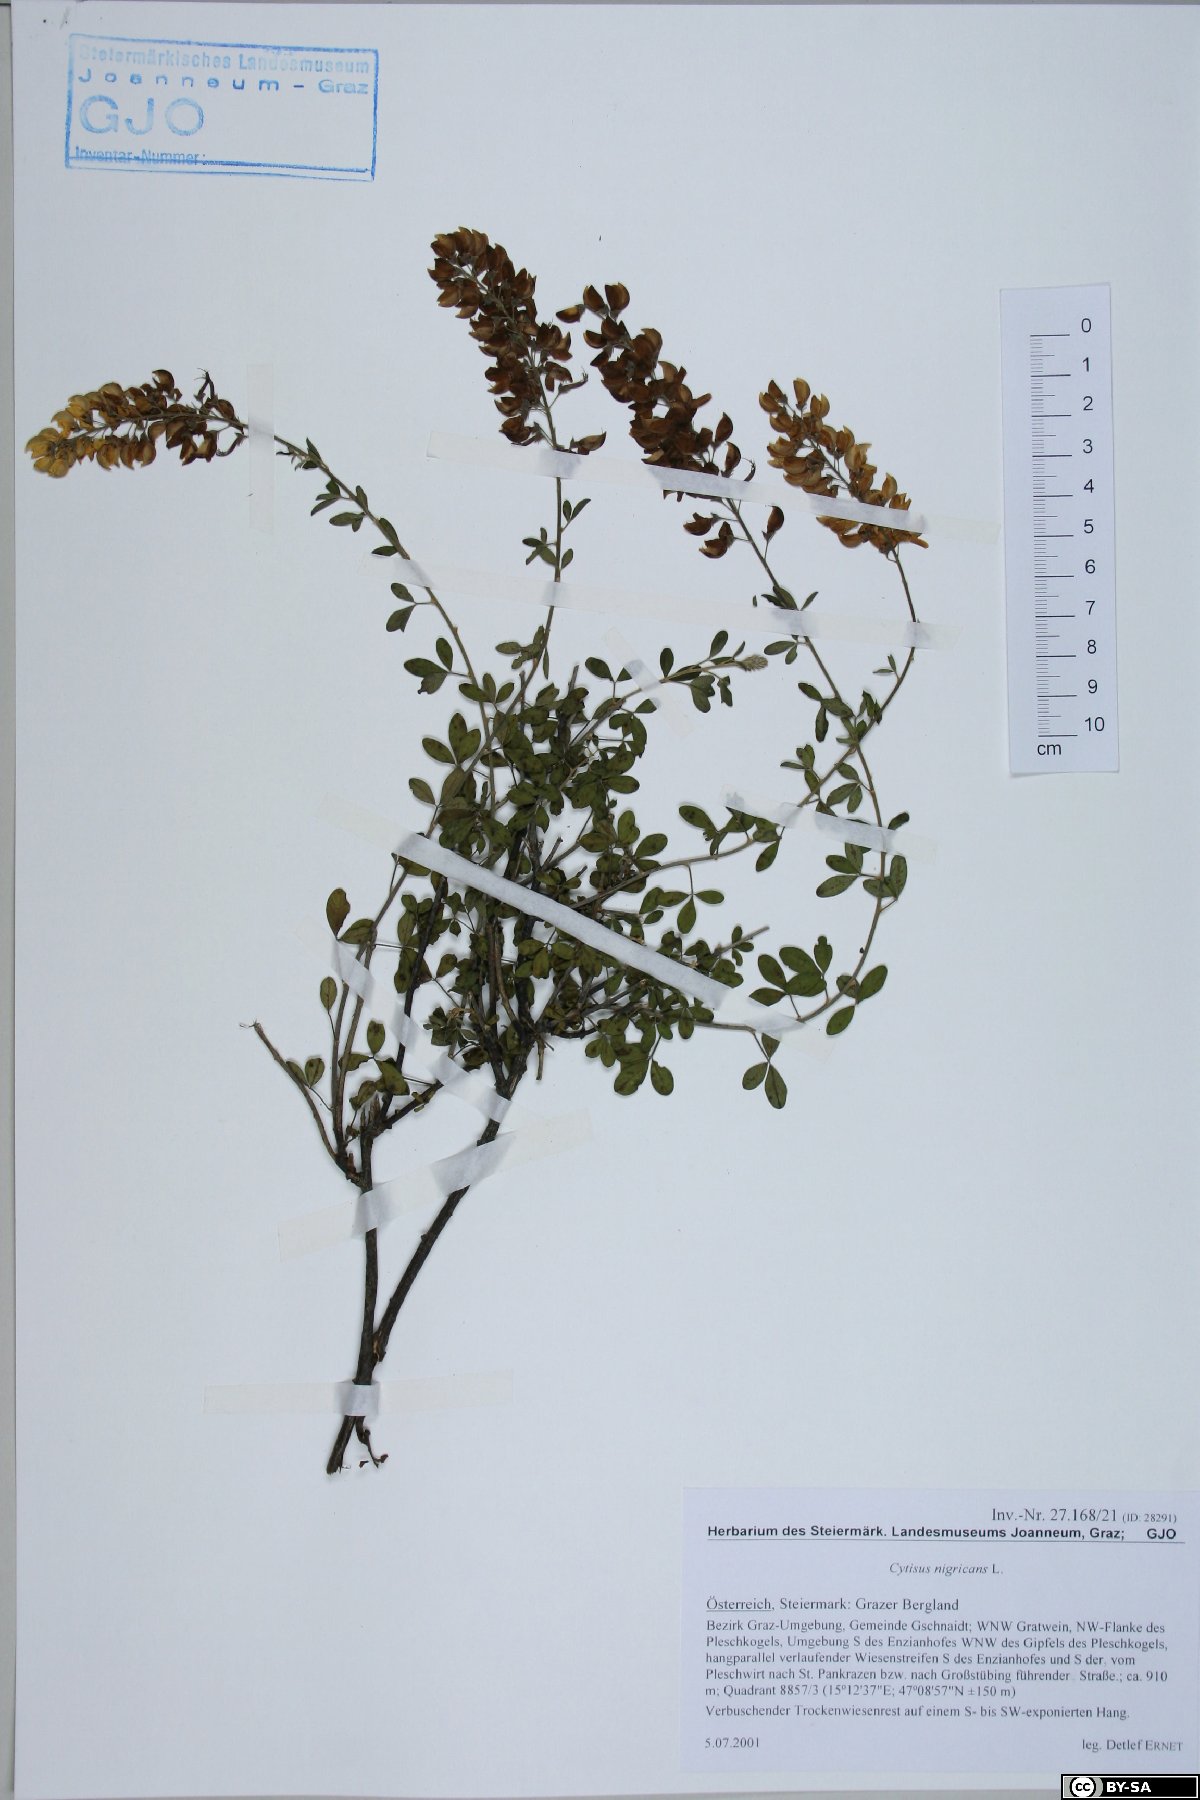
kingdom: Plantae
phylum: Tracheophyta
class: Magnoliopsida
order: Fabales
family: Fabaceae
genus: Cytisus
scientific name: Cytisus nigricans
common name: Black broom
